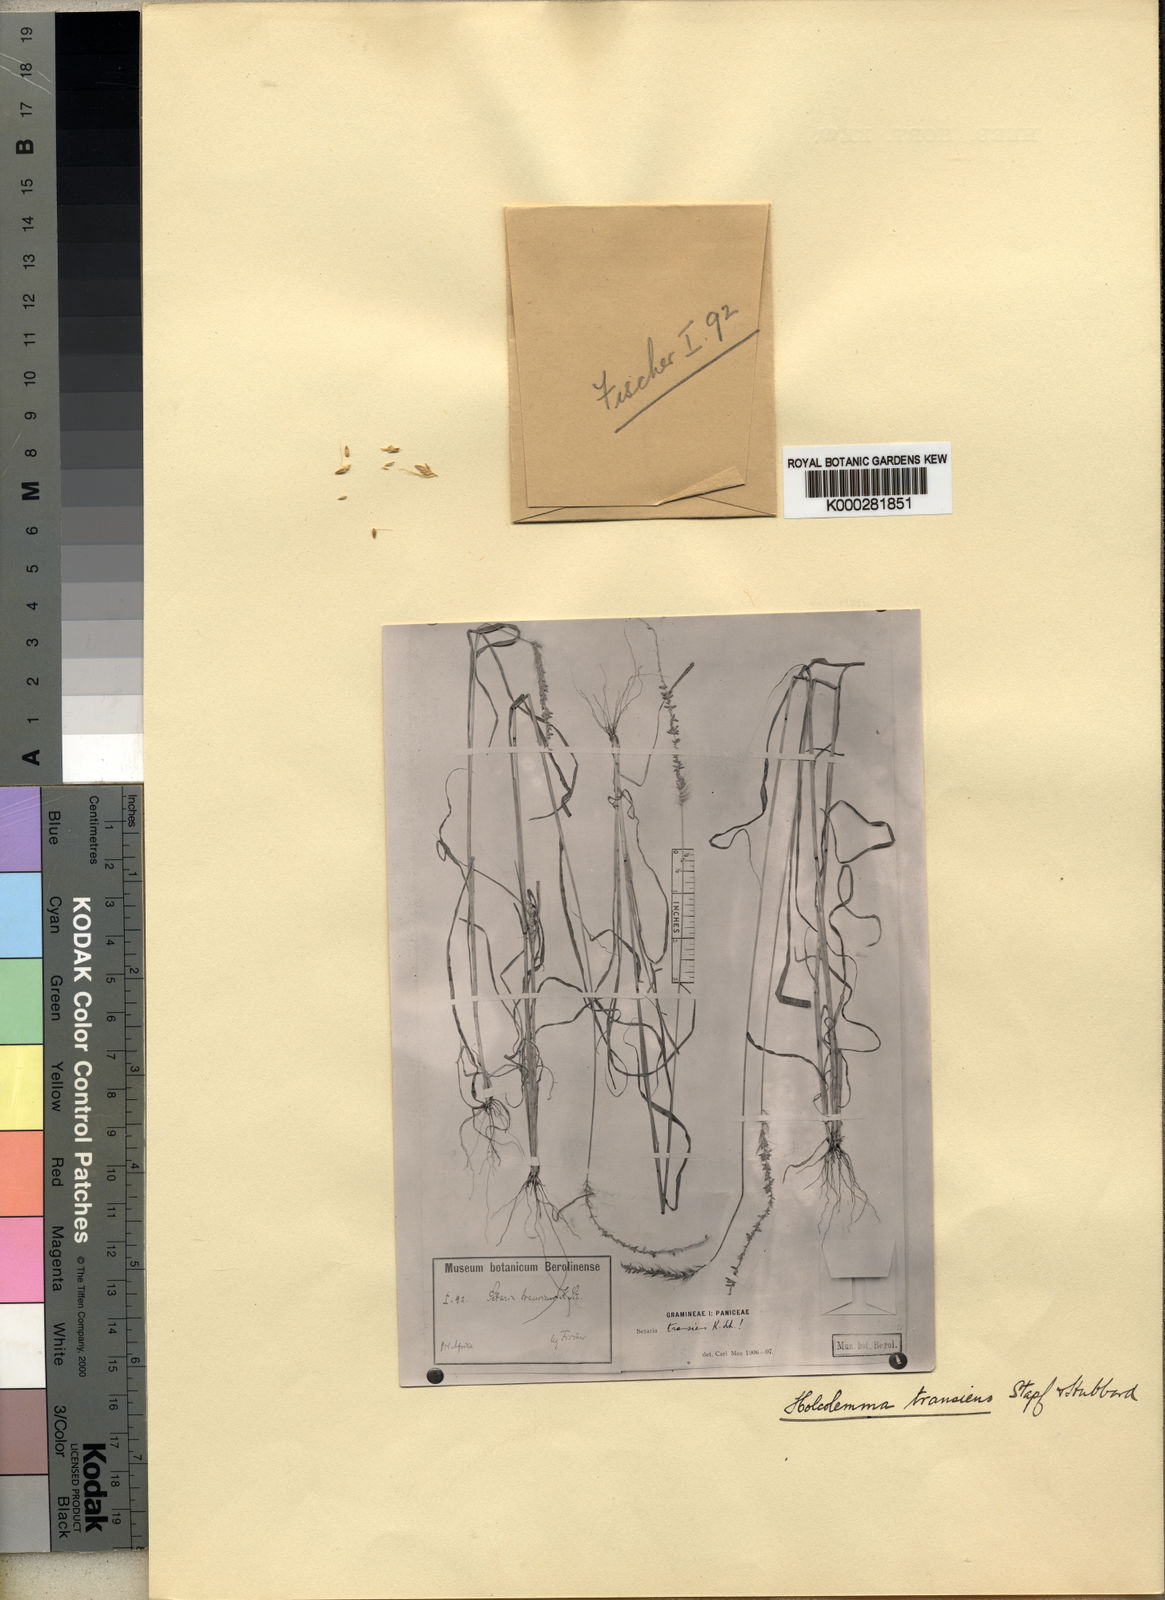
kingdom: Plantae
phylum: Tracheophyta
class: Liliopsida
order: Poales
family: Poaceae
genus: Holcolemma
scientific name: Holcolemma canaliculatum
